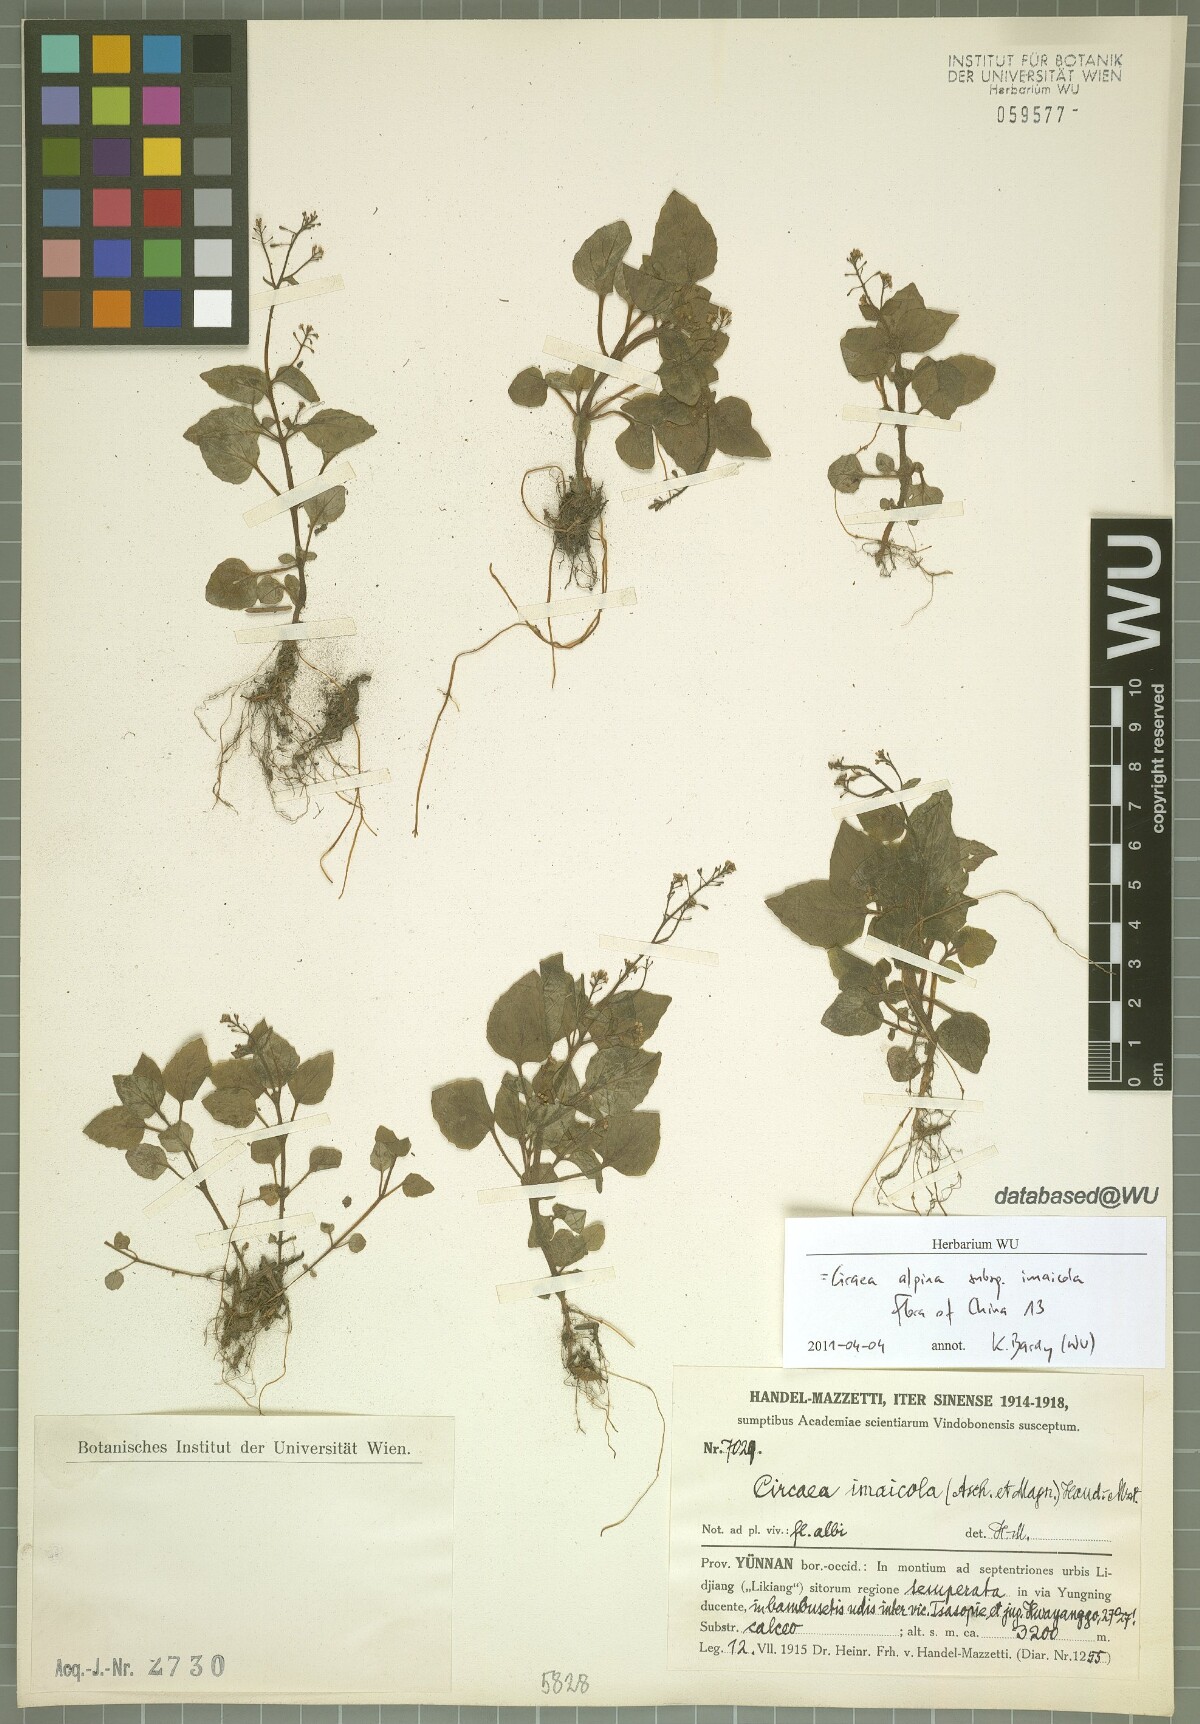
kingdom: Plantae
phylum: Tracheophyta
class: Magnoliopsida
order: Myrtales
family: Onagraceae
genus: Circaea
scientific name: Circaea alpina
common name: Alpine enchanter's-nightshade
